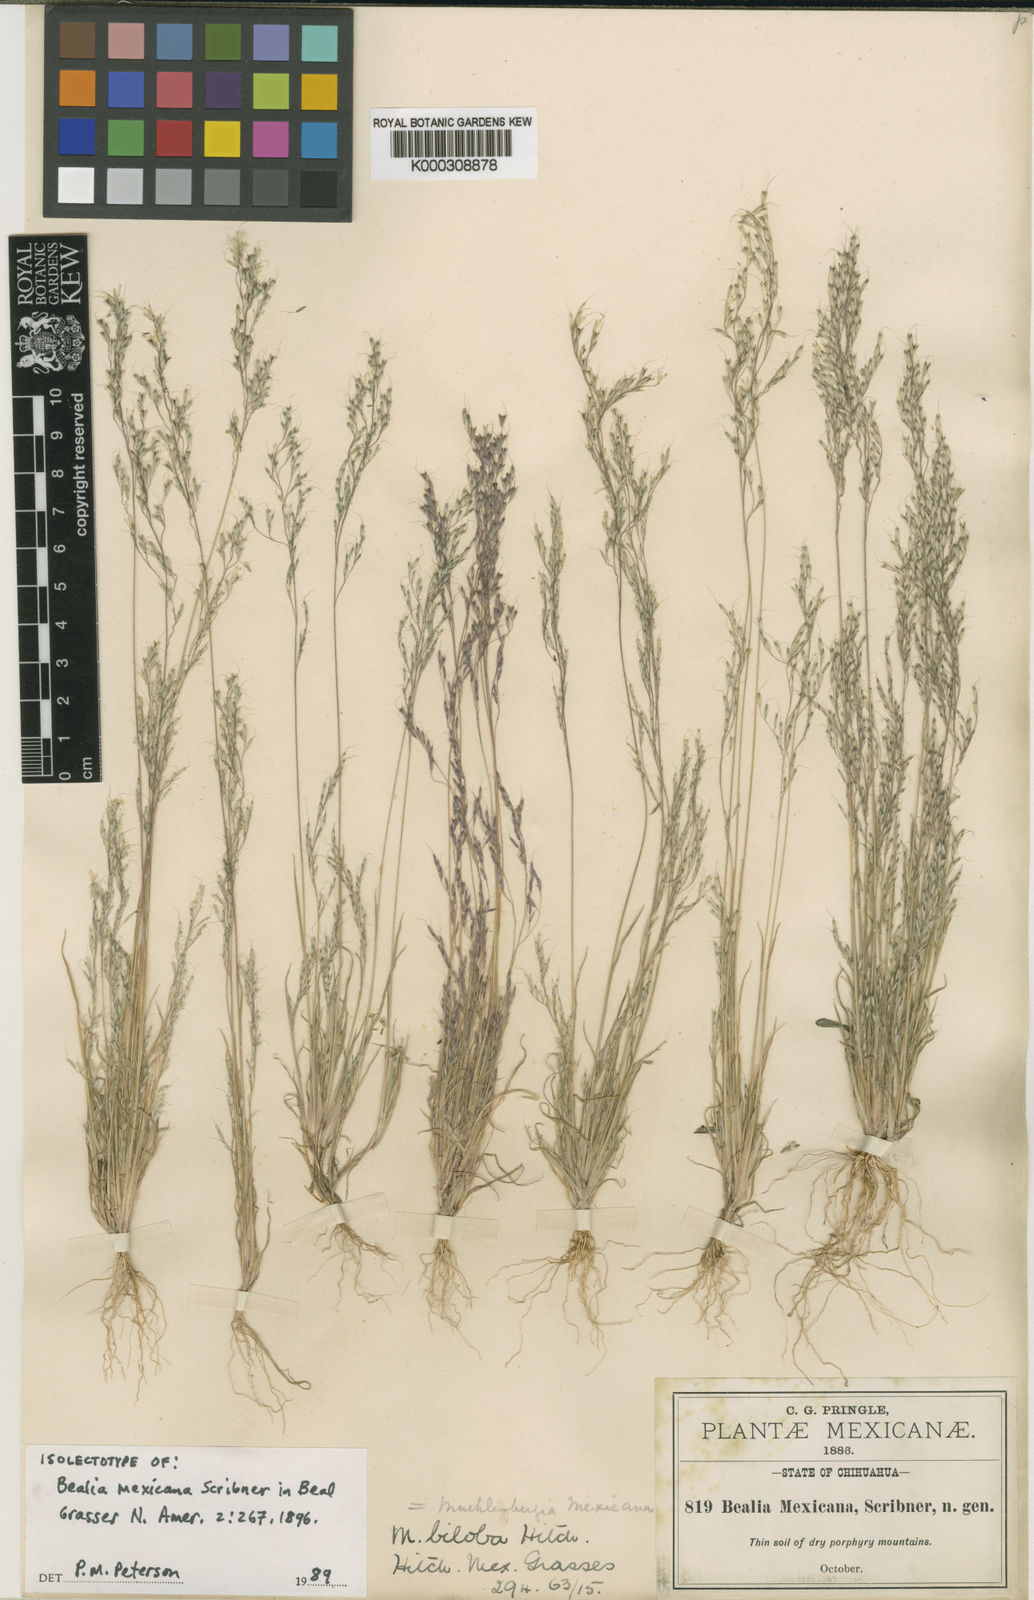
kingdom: Plantae
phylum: Tracheophyta
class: Liliopsida
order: Poales
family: Poaceae
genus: Muhlenbergia
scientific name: Muhlenbergia biloba
